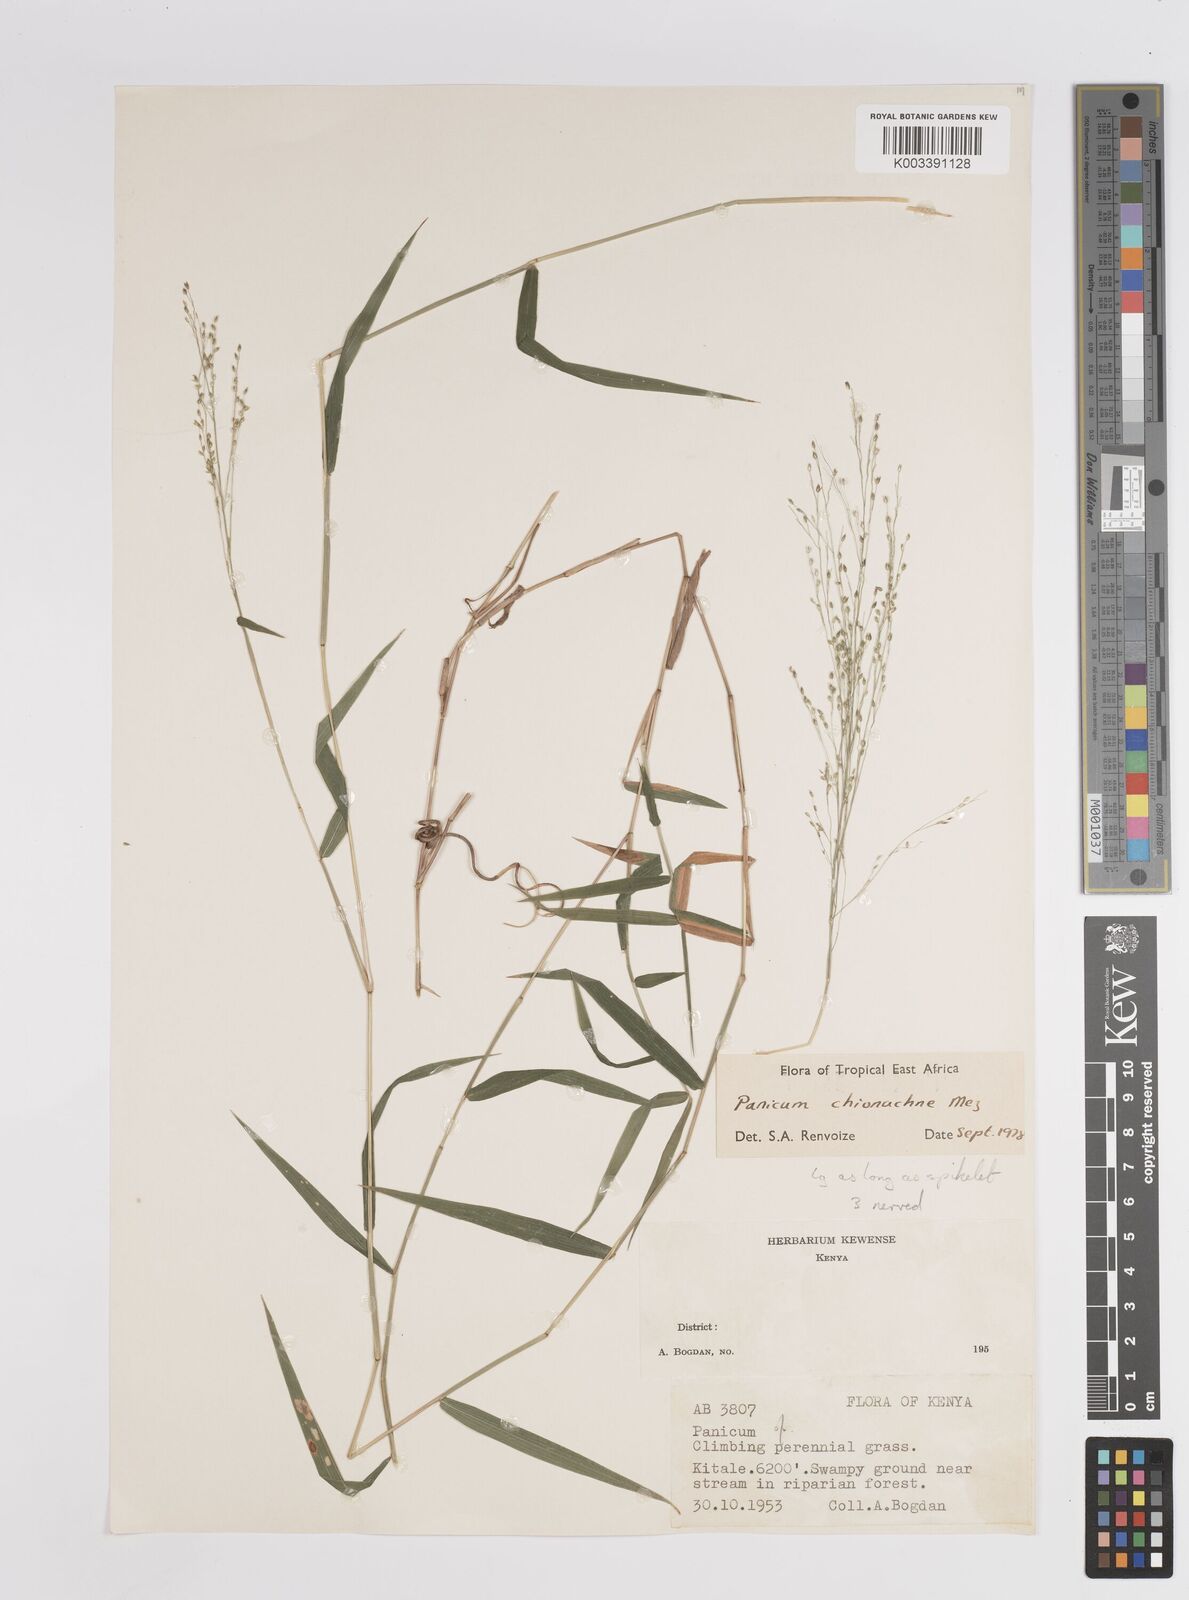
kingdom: Plantae
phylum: Tracheophyta
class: Liliopsida
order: Poales
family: Poaceae
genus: Panicum
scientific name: Panicum chionachne
